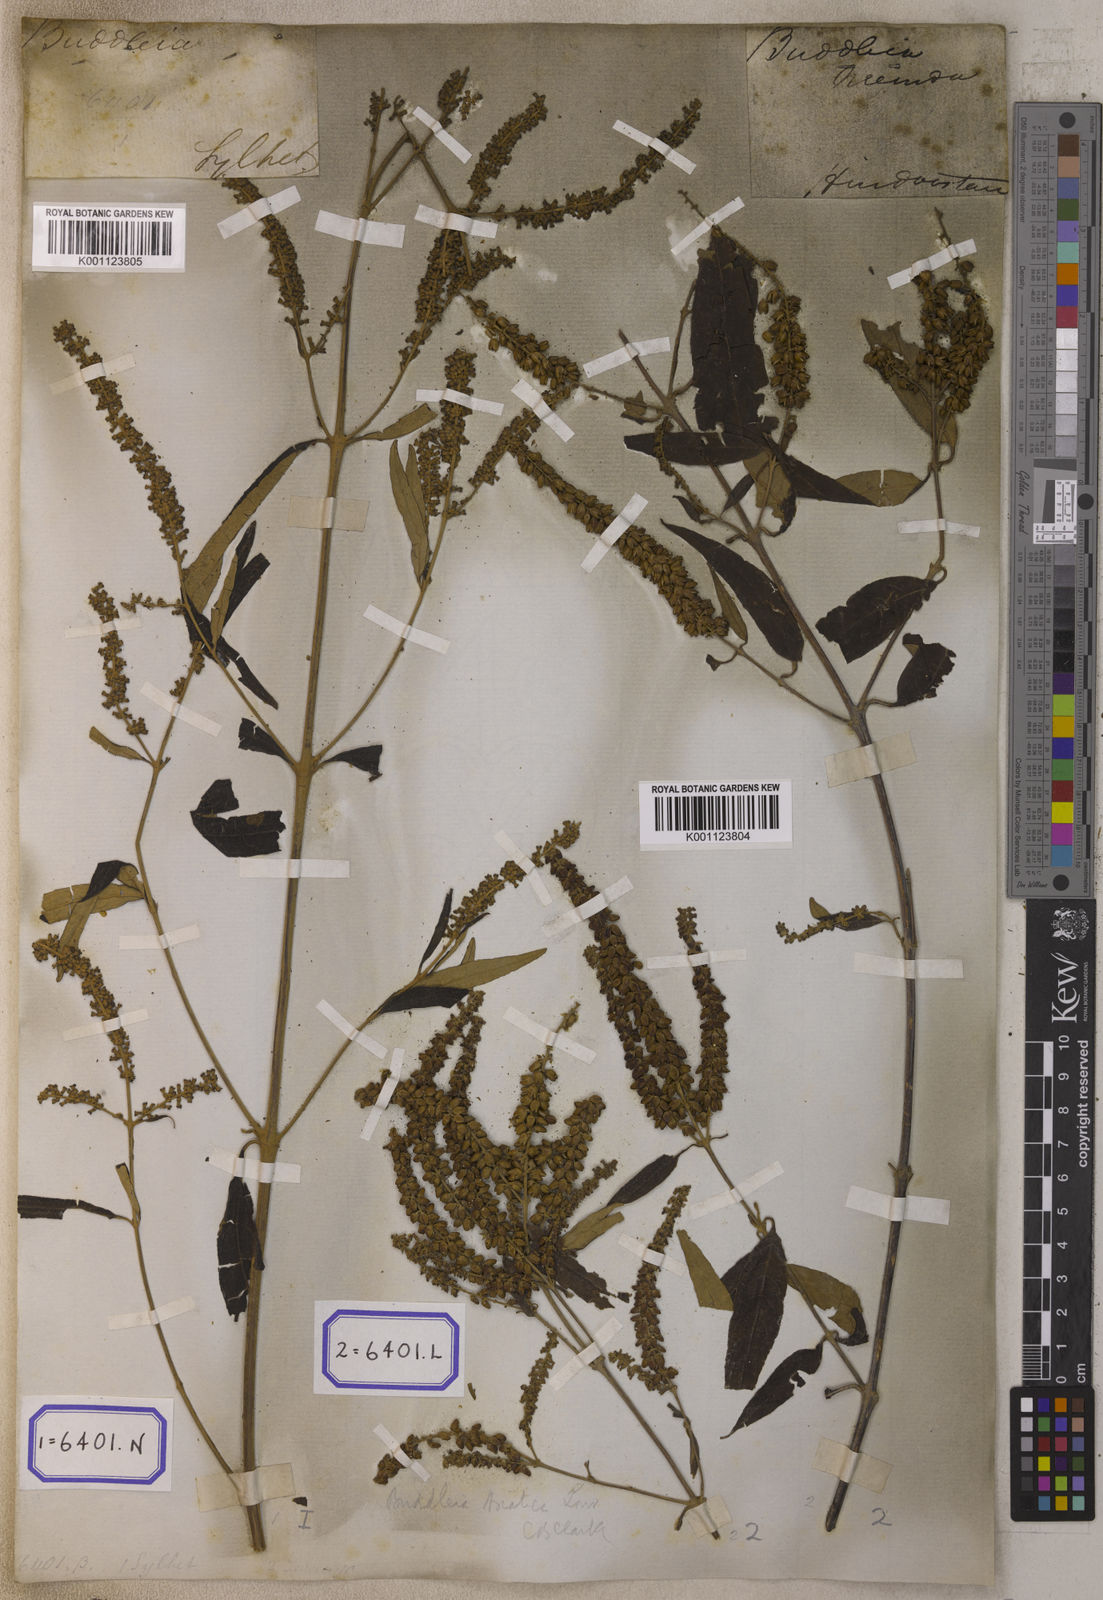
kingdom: Plantae
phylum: Tracheophyta
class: Magnoliopsida
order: Lamiales
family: Scrophulariaceae
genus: Buddleja
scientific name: Buddleja
